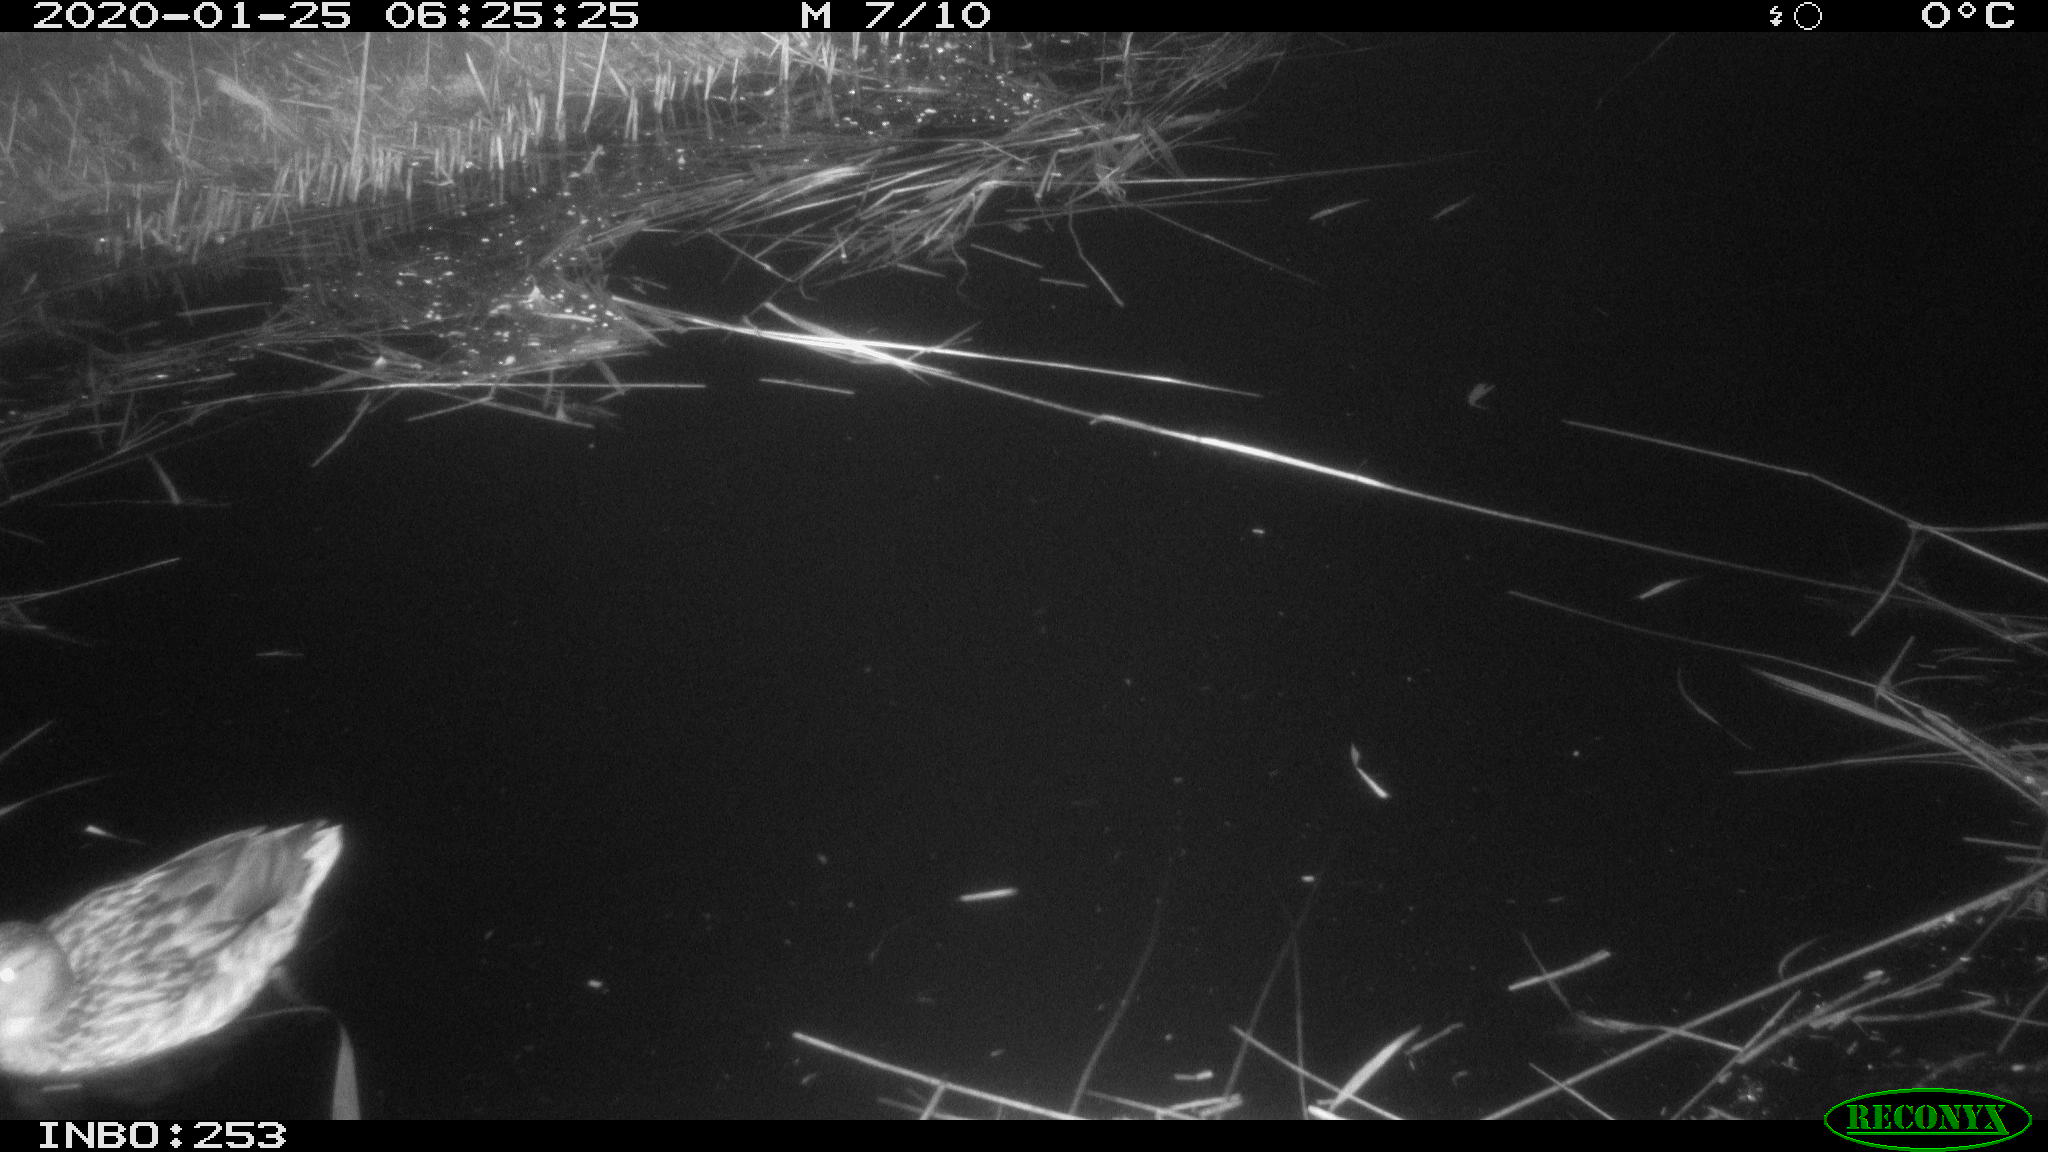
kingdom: Animalia
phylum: Chordata
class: Aves
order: Anseriformes
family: Anatidae
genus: Anas
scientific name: Anas platyrhynchos
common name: Mallard
